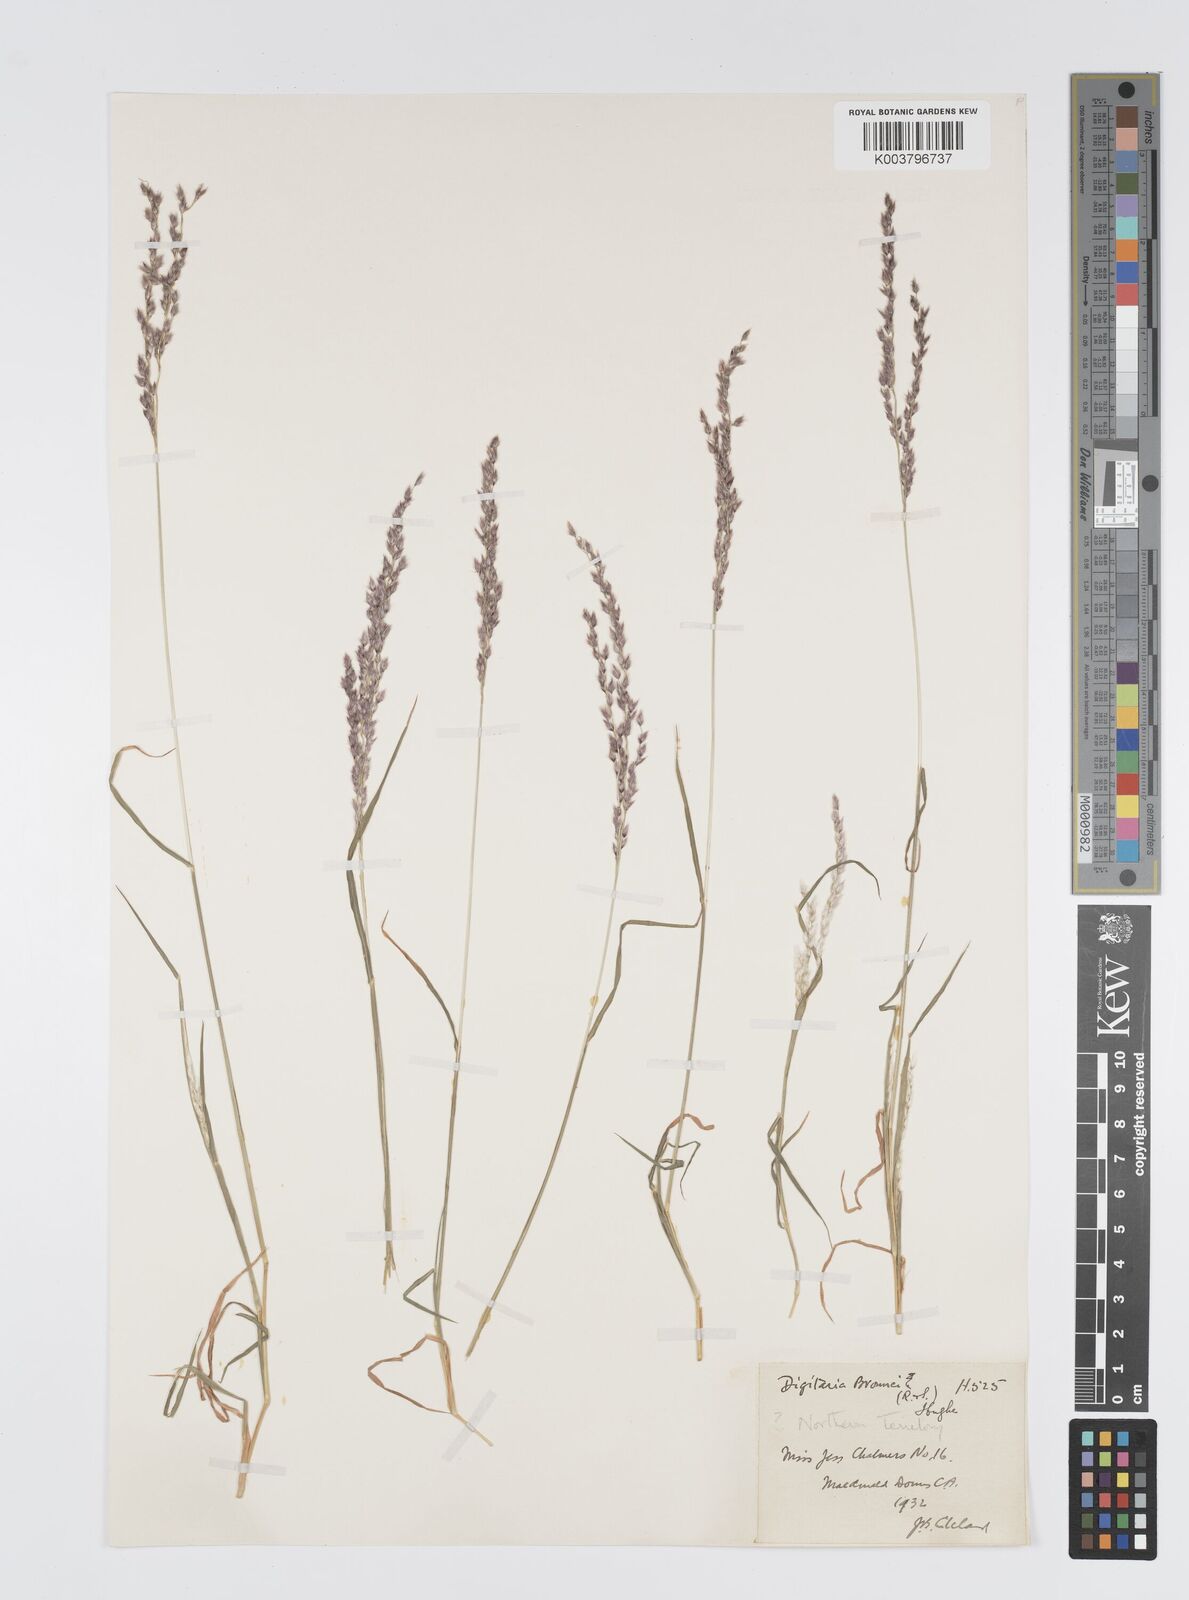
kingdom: Plantae
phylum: Tracheophyta
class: Liliopsida
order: Poales
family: Poaceae
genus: Digitaria
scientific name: Digitaria brownii
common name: Cotton grass
